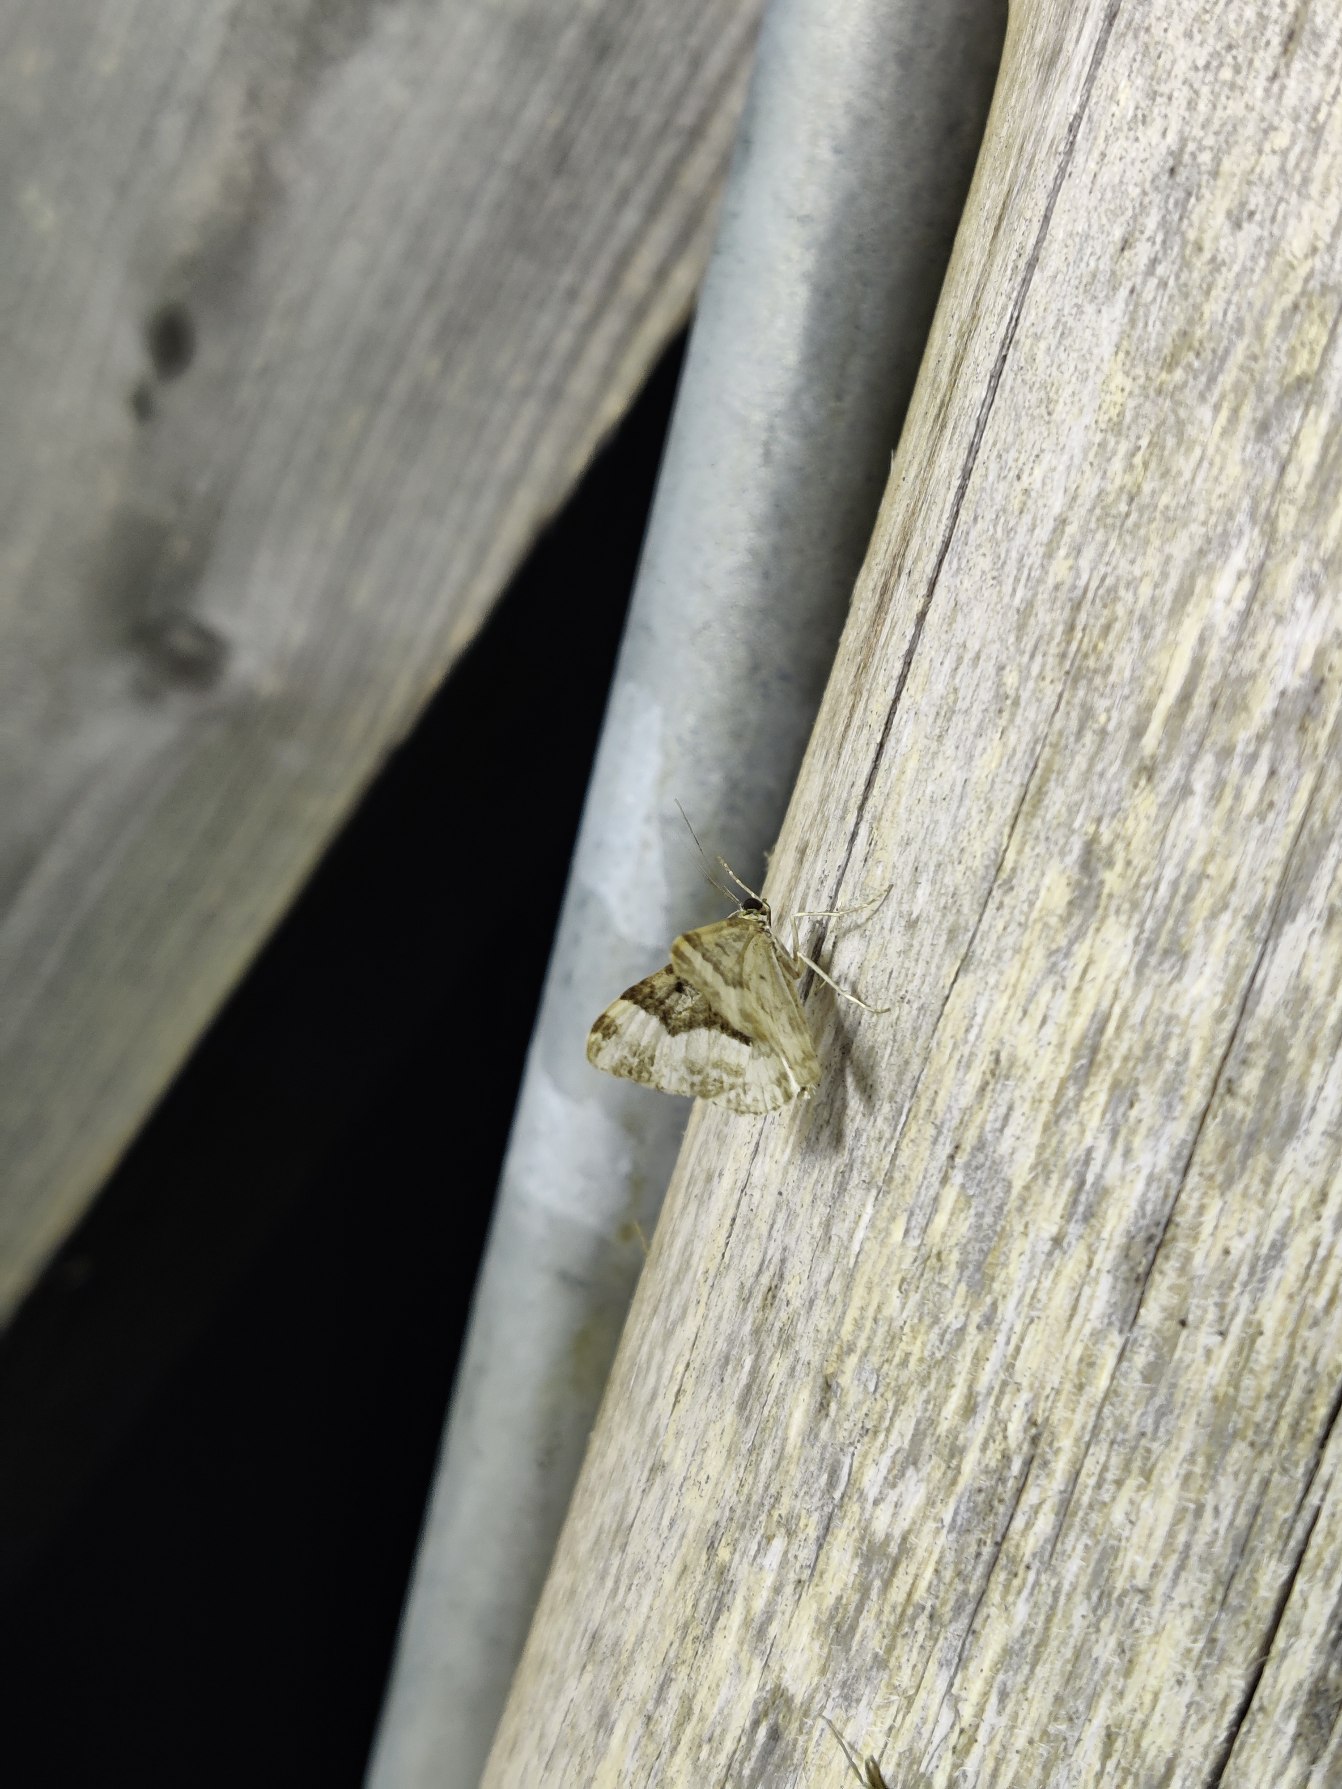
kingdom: Animalia
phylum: Arthropoda
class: Insecta
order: Lepidoptera
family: Geometridae
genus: Epirrhoe
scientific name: Epirrhoe alternata
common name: Almindelig bladmåler
